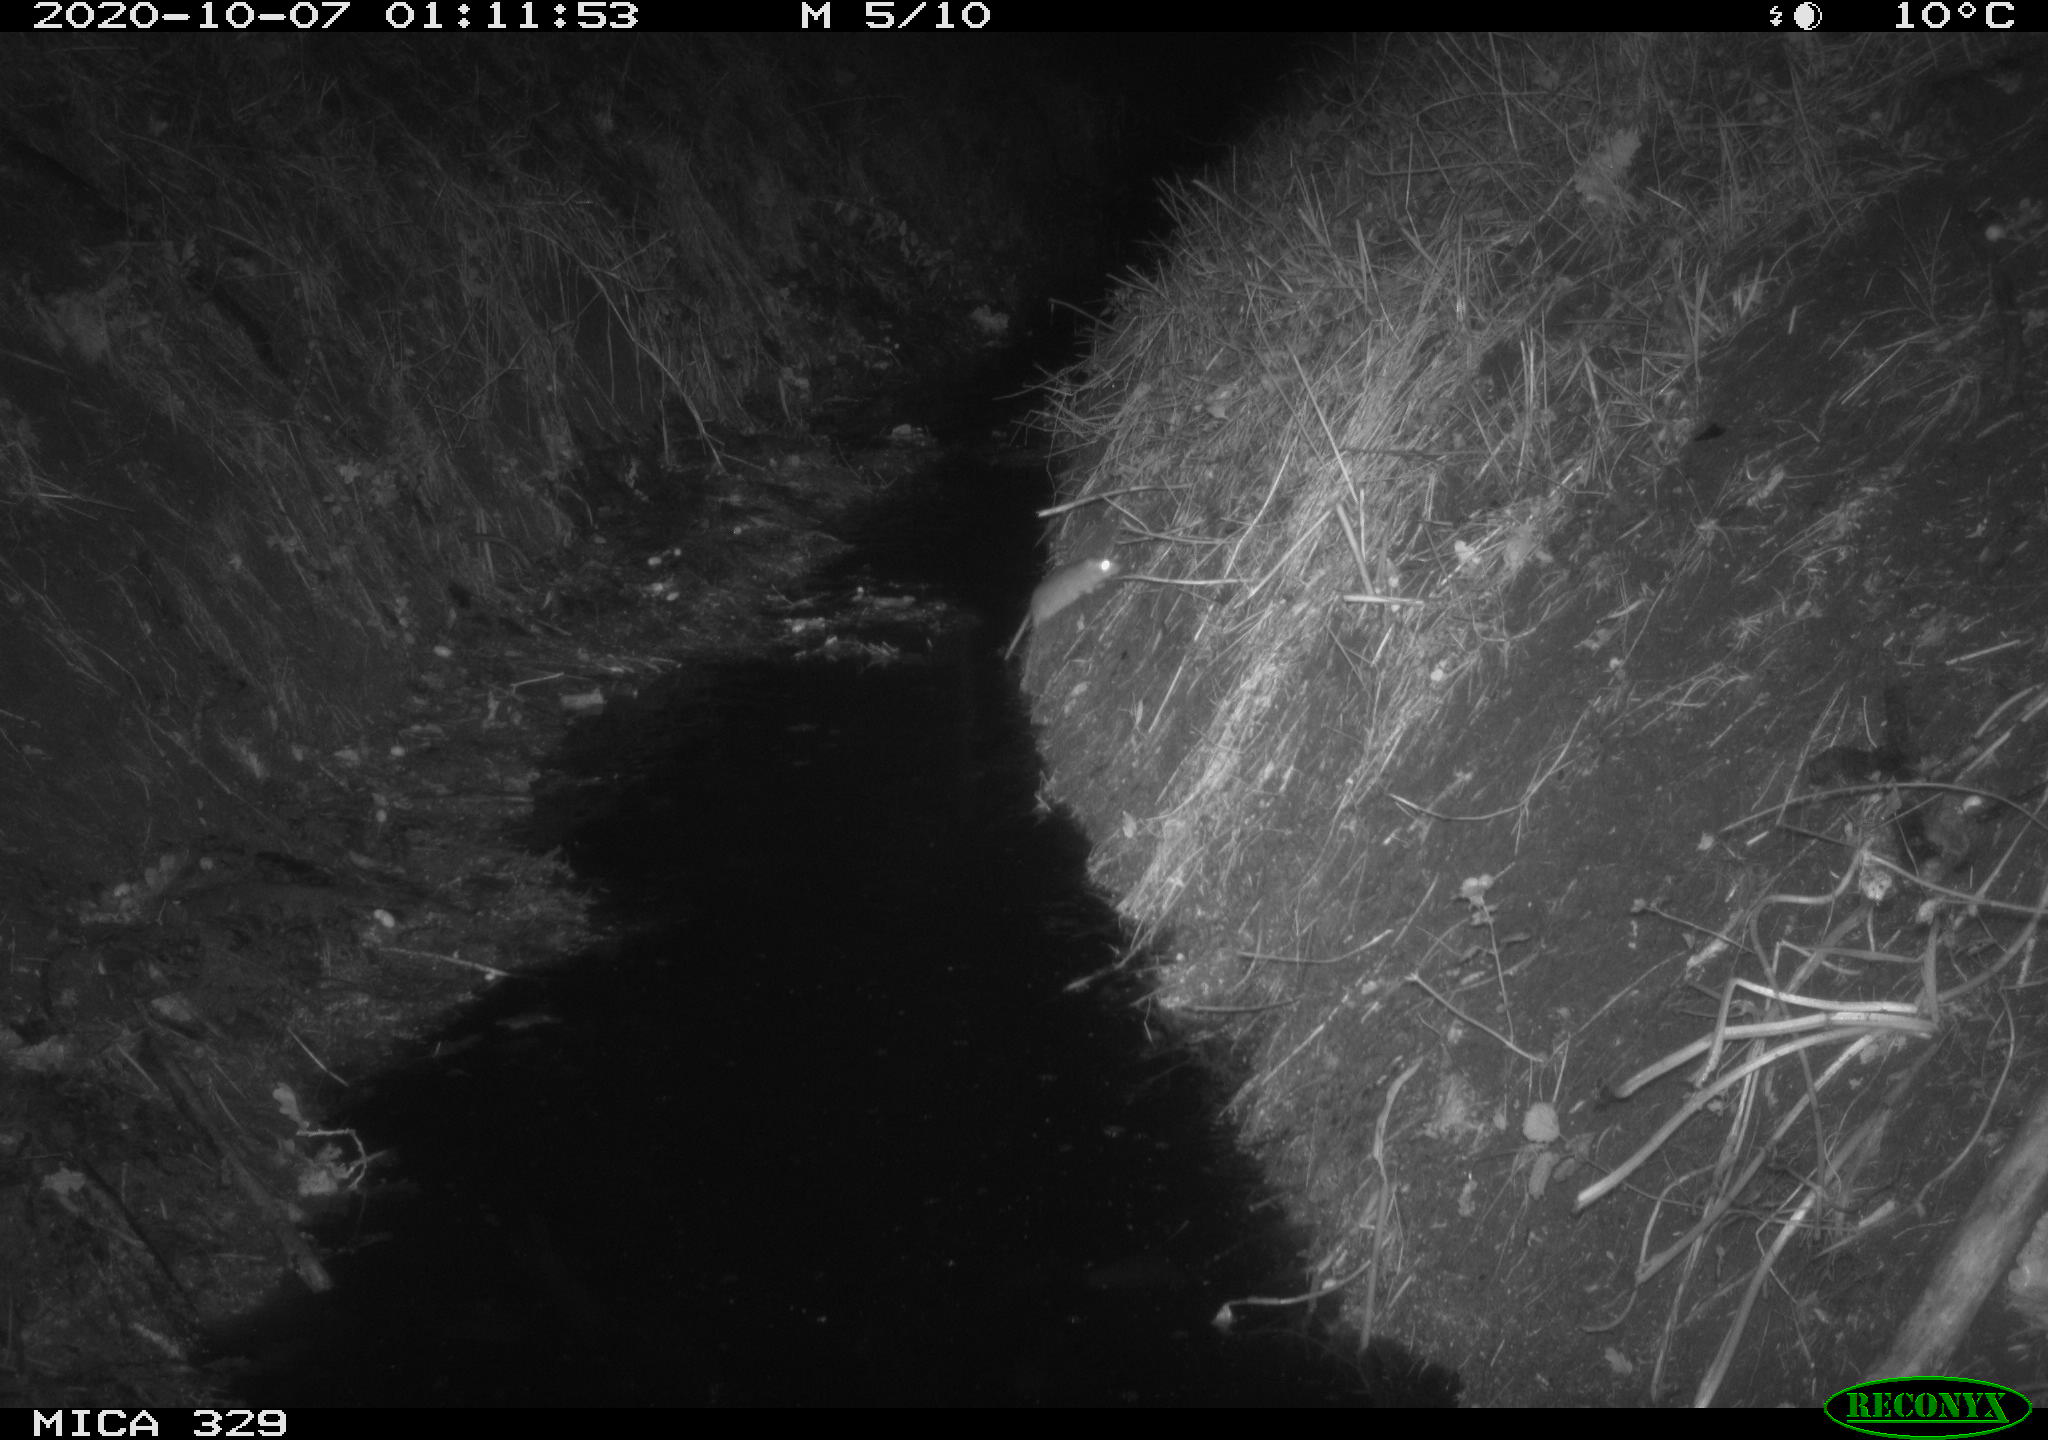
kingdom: Animalia
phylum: Chordata
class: Mammalia
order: Rodentia
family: Muridae
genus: Rattus
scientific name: Rattus norvegicus
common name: Brown rat
